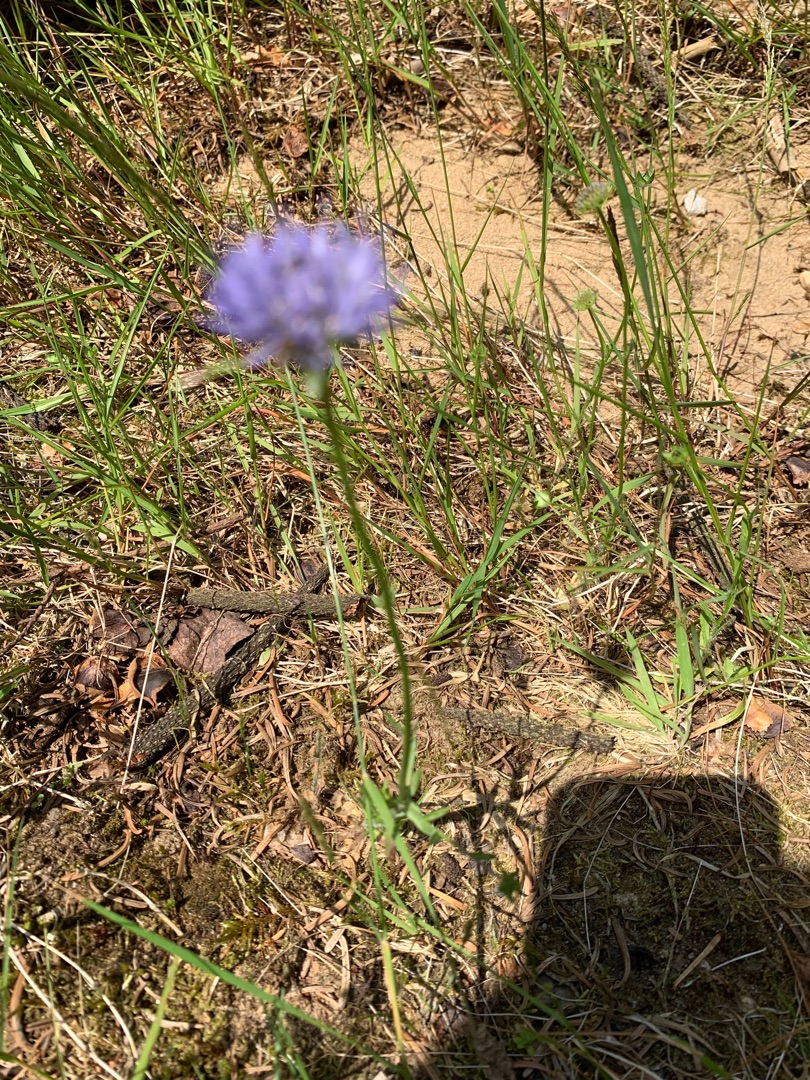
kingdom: Plantae
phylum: Tracheophyta
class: Magnoliopsida
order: Asterales
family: Campanulaceae
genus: Jasione
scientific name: Jasione montana
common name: Blåmunke
